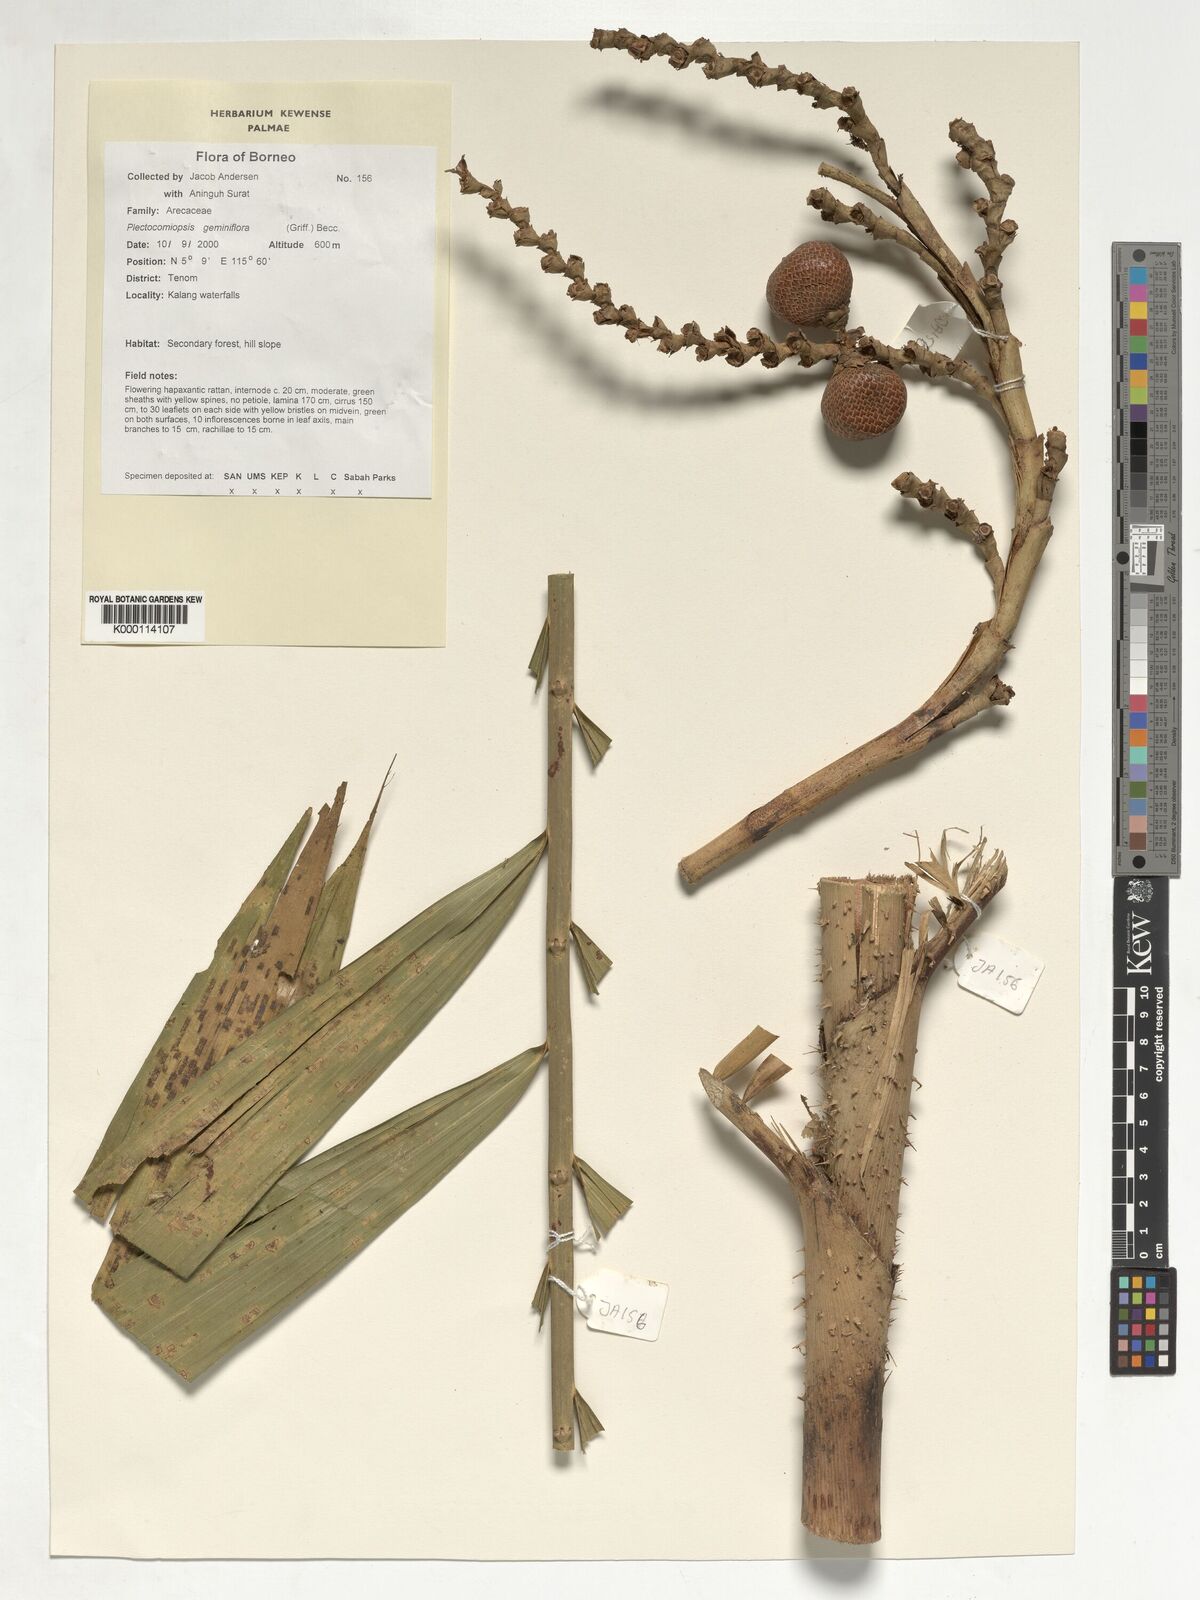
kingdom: Plantae
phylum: Tracheophyta
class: Liliopsida
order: Arecales
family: Arecaceae
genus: Plectocomiopsis
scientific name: Plectocomiopsis geminiflora
